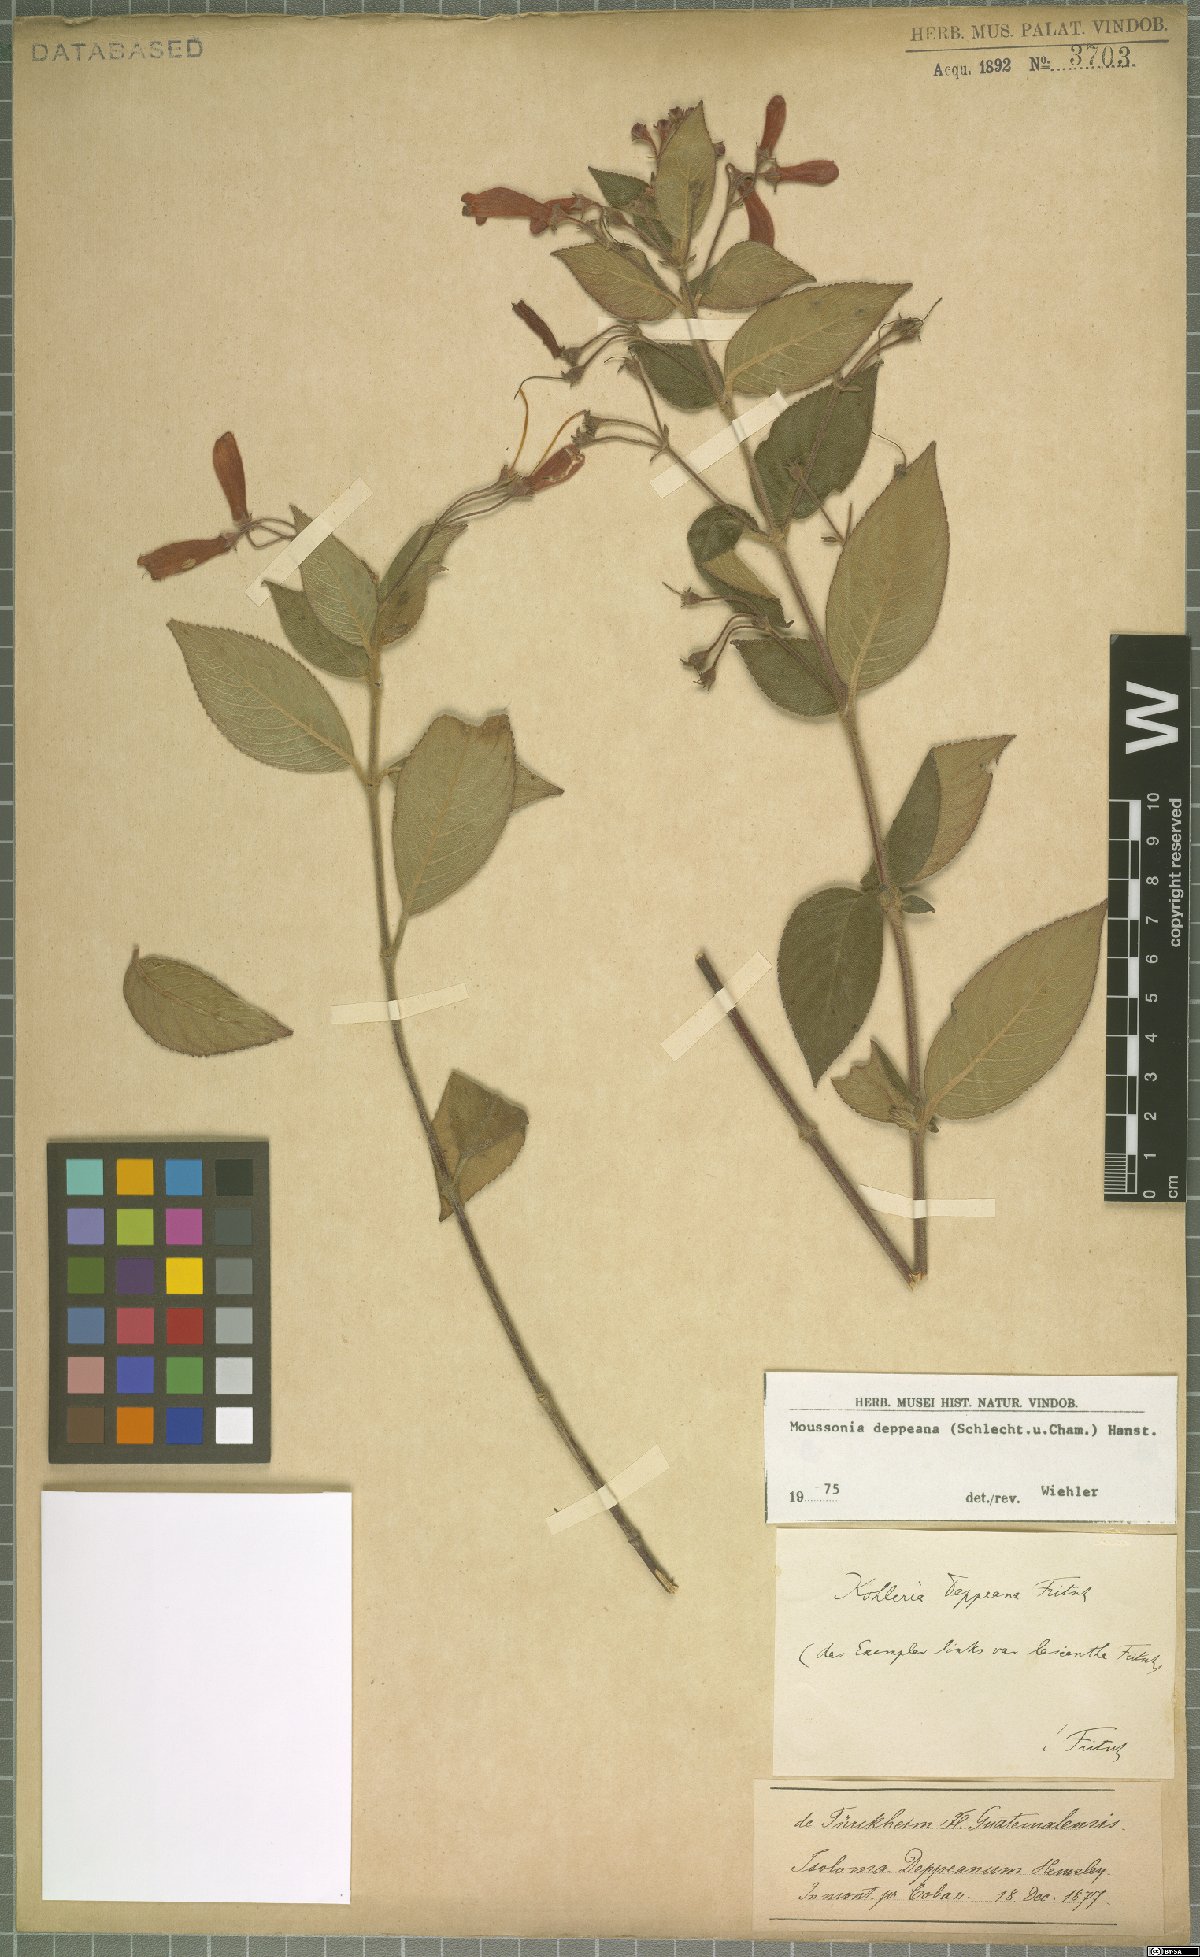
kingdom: Plantae
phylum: Tracheophyta
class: Magnoliopsida
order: Lamiales
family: Gesneriaceae
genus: Moussonia
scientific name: Moussonia deppeana
